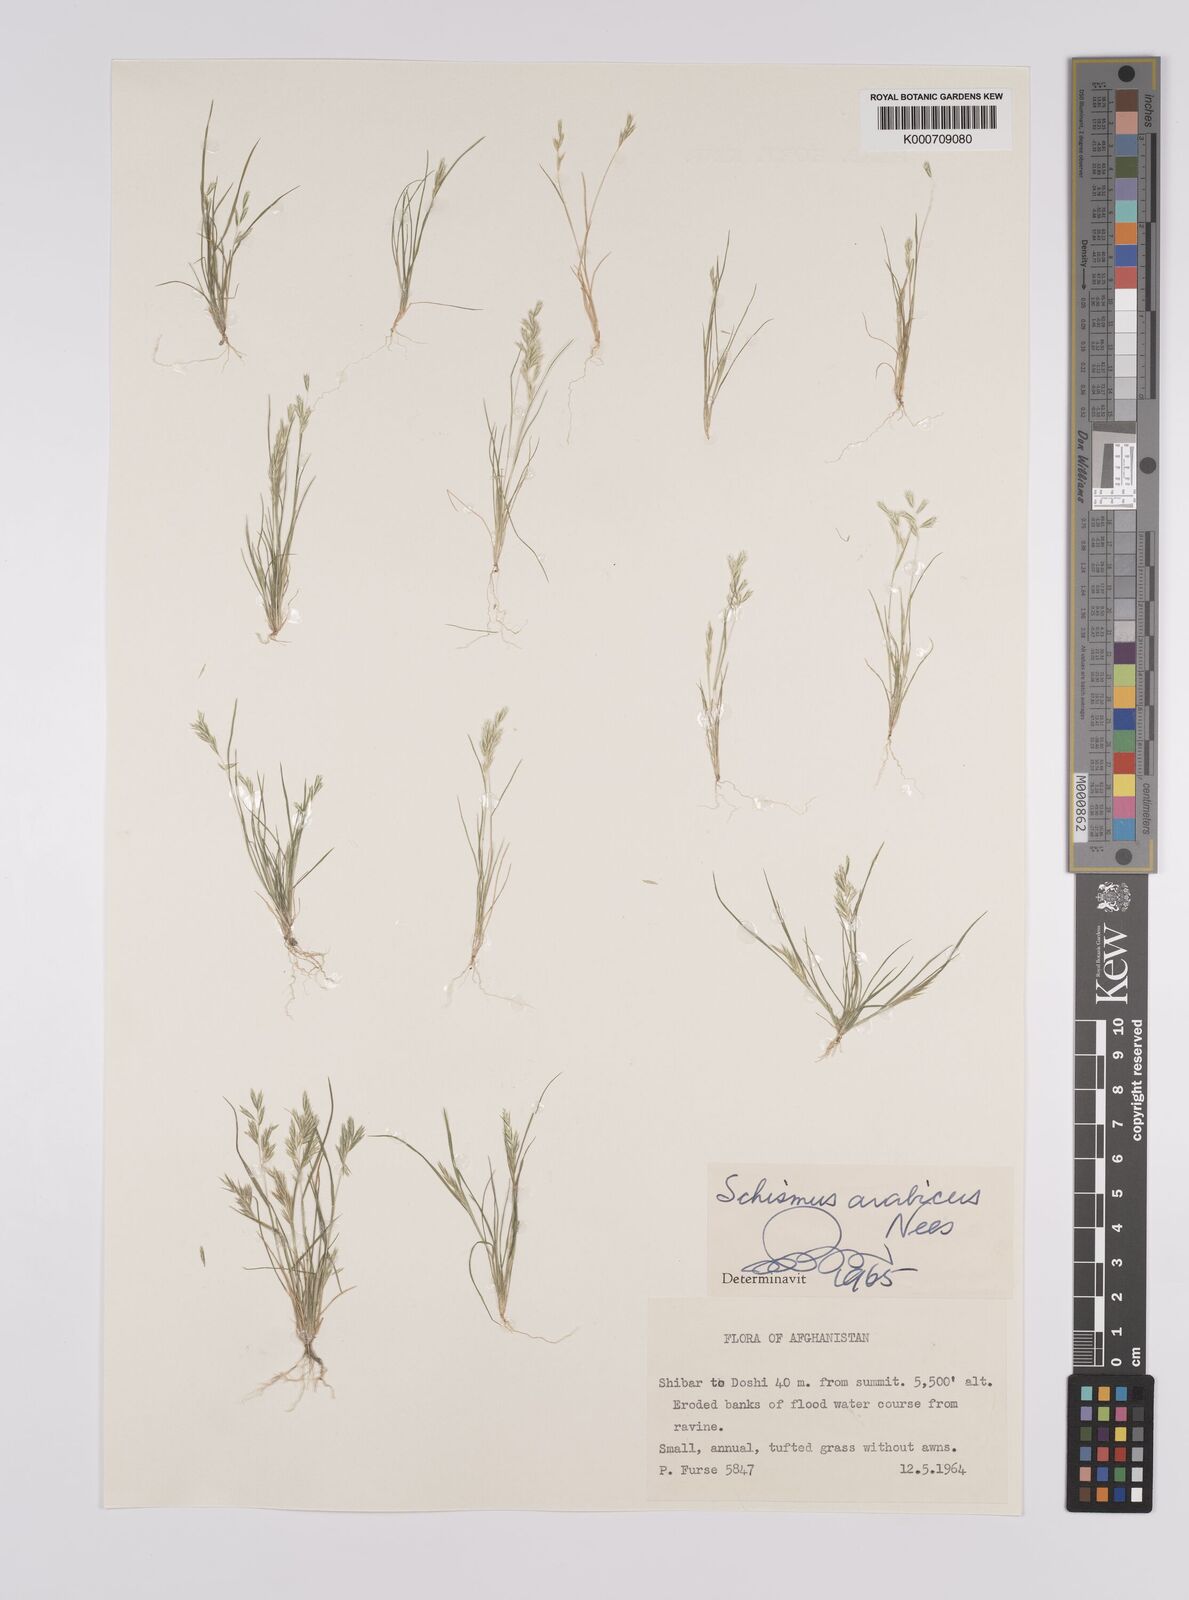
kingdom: Plantae
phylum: Tracheophyta
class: Liliopsida
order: Poales
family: Poaceae
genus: Schismus
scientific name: Schismus arabicus
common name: Arabian schismus
